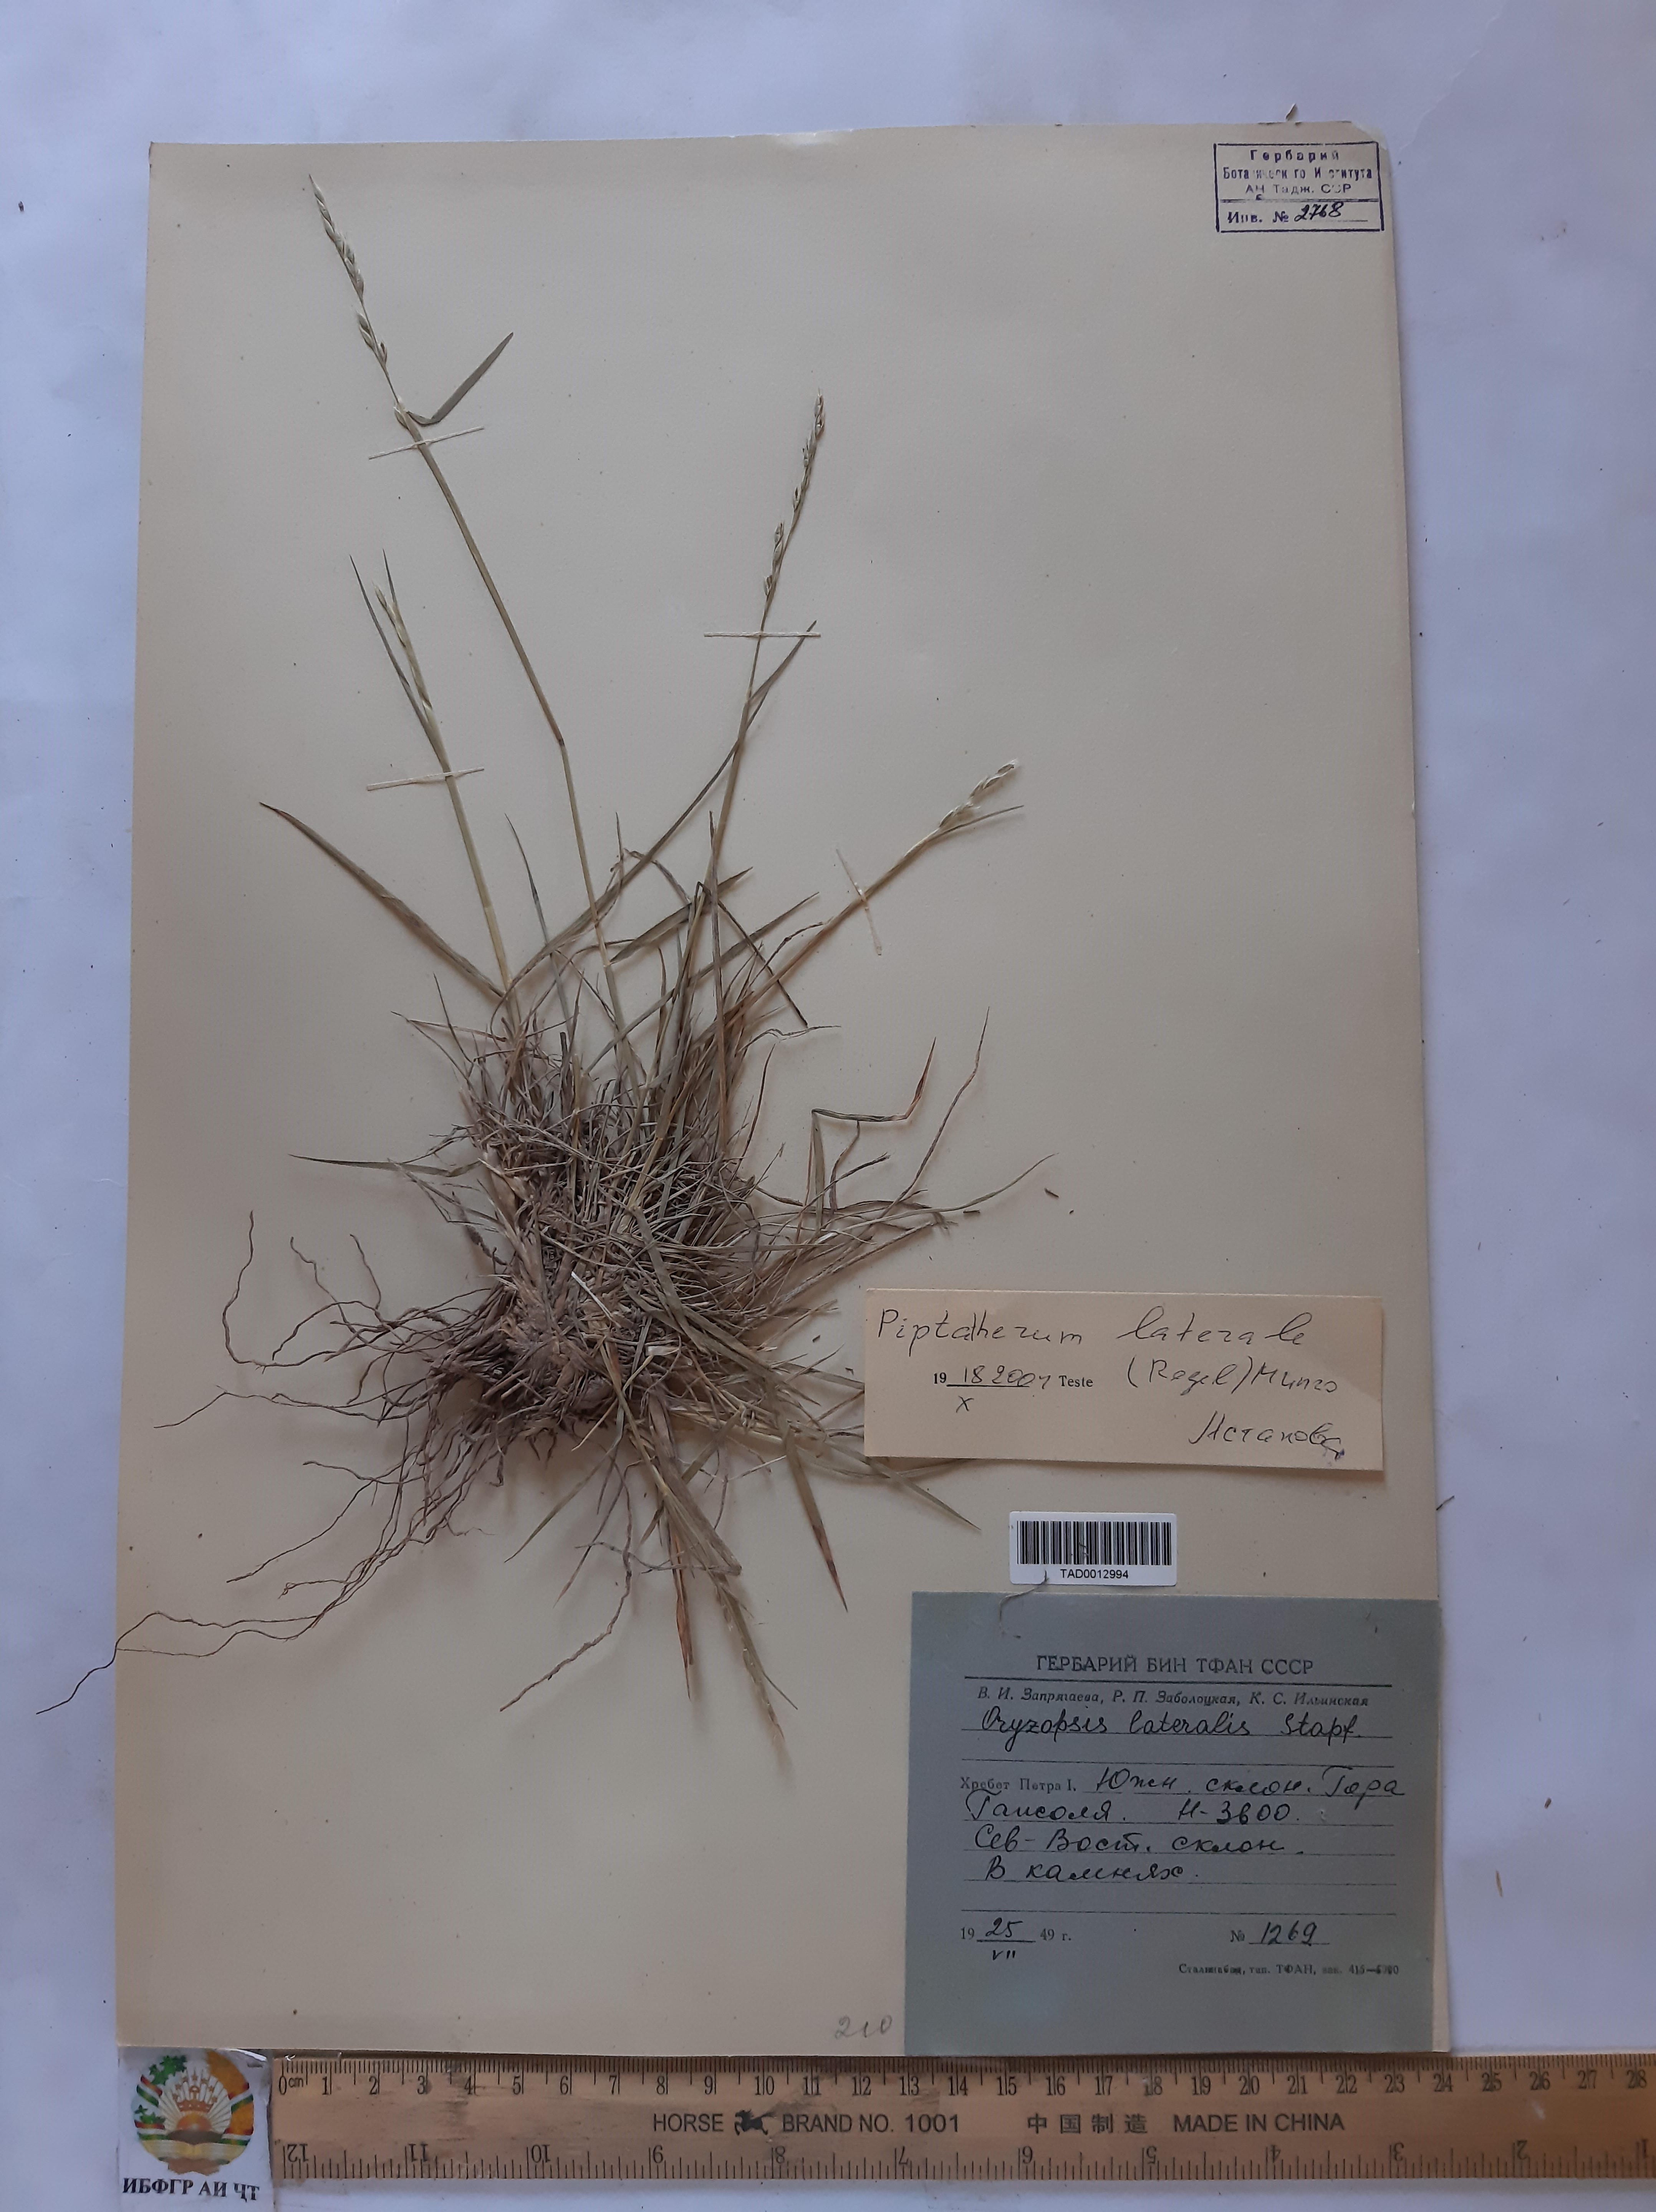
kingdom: Plantae
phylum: Tracheophyta
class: Liliopsida
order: Poales
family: Poaceae
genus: Piptatherum
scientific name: Piptatherum laterale
